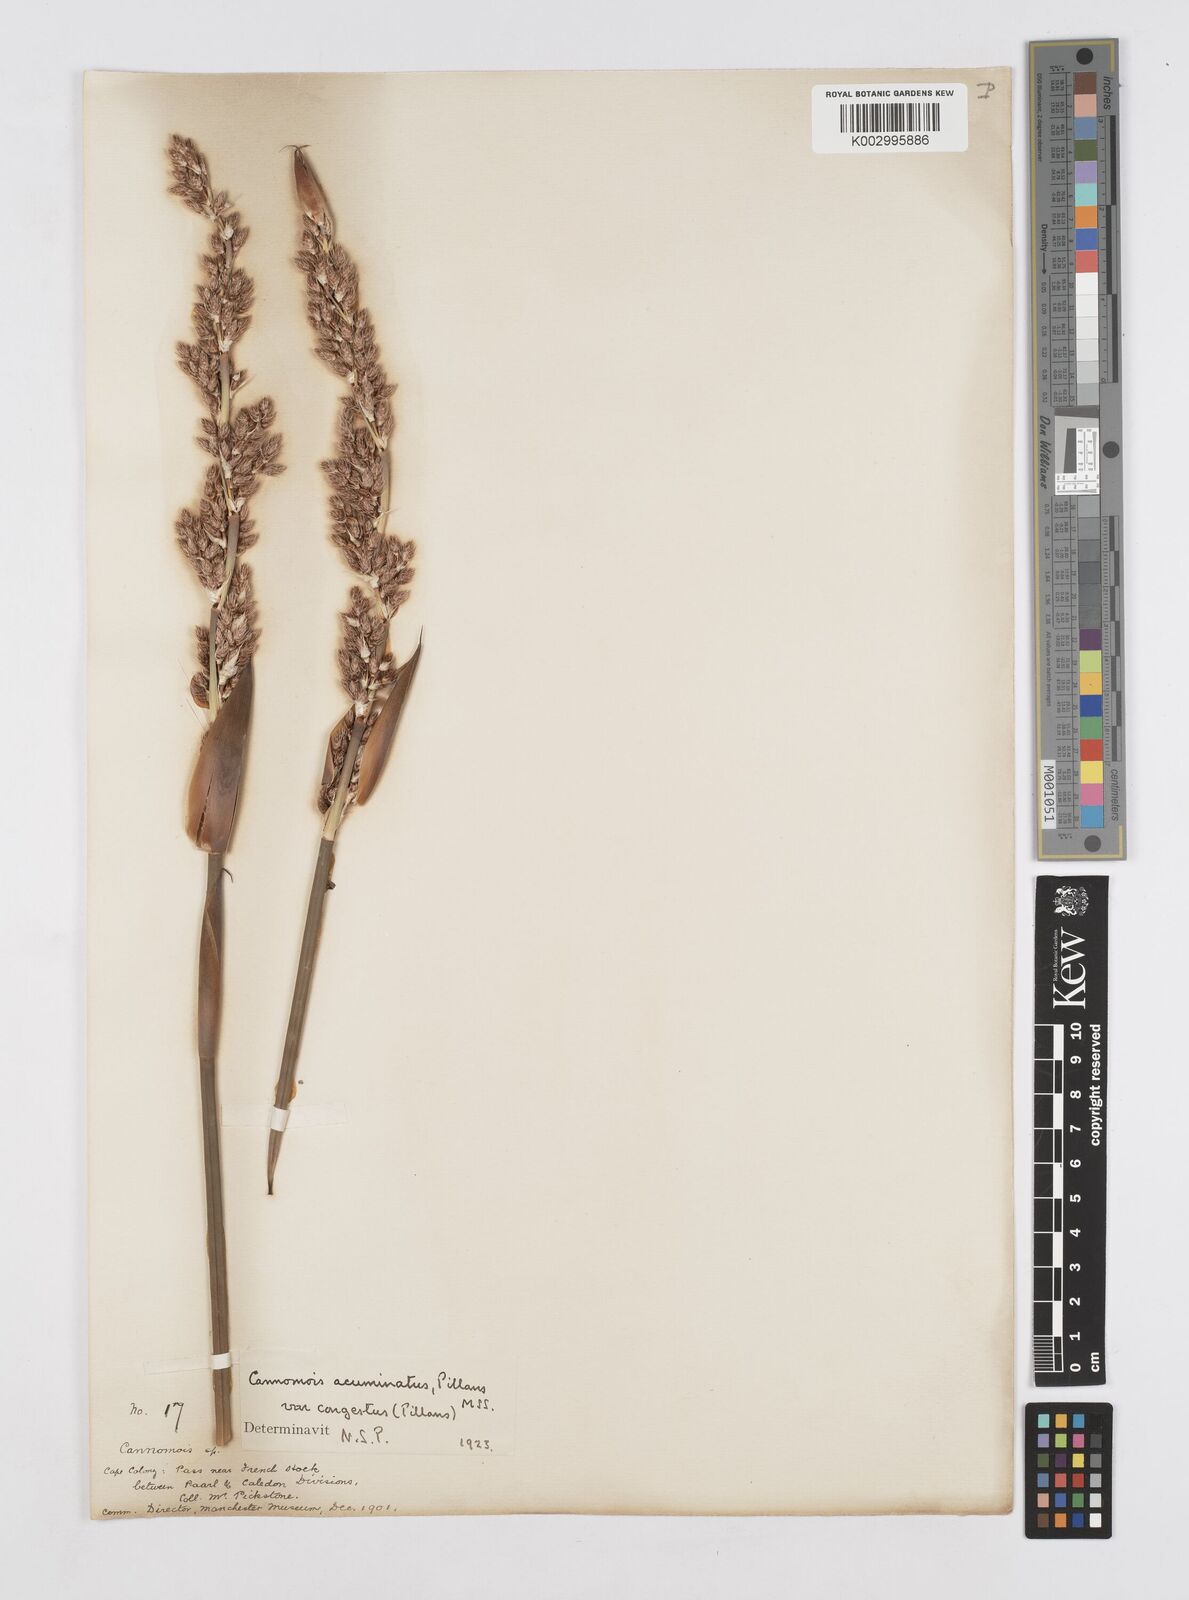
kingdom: Plantae
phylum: Tracheophyta
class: Liliopsida
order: Poales
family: Restionaceae
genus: Cannomois
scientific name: Cannomois congesta
